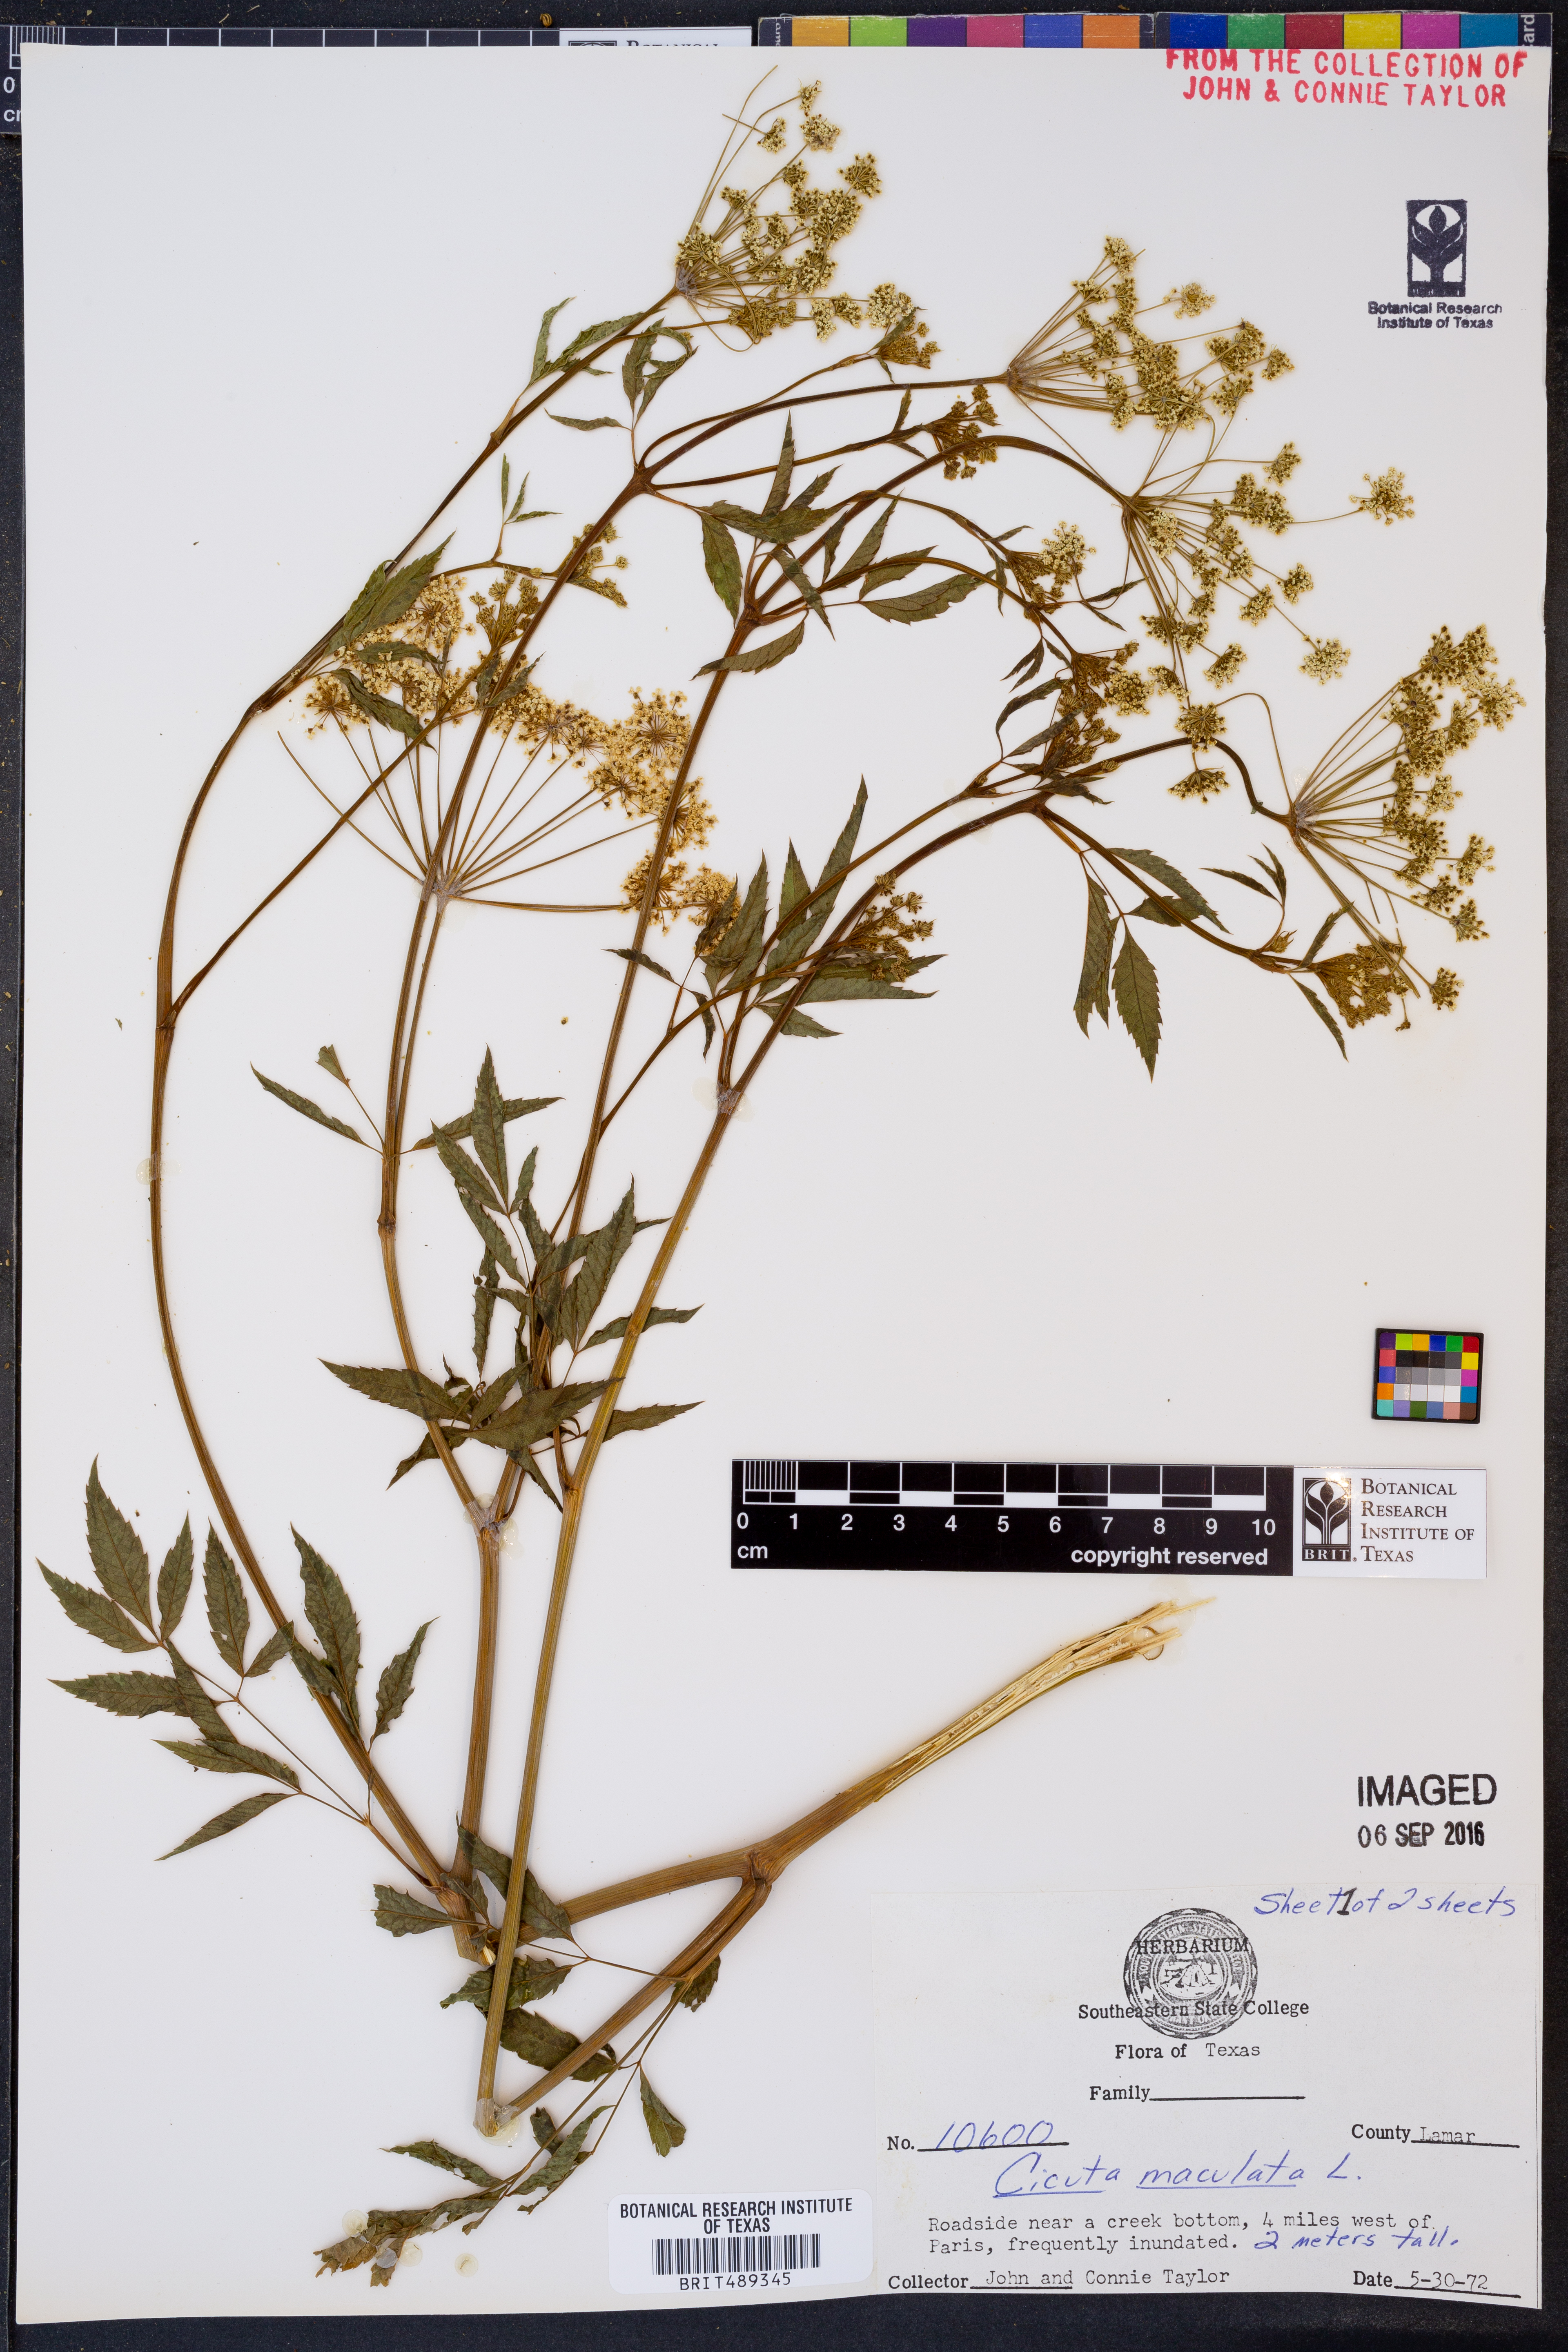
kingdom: Plantae
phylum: Tracheophyta
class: Magnoliopsida
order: Apiales
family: Apiaceae
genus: Cicuta
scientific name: Cicuta maculata
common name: Spotted cowbane
